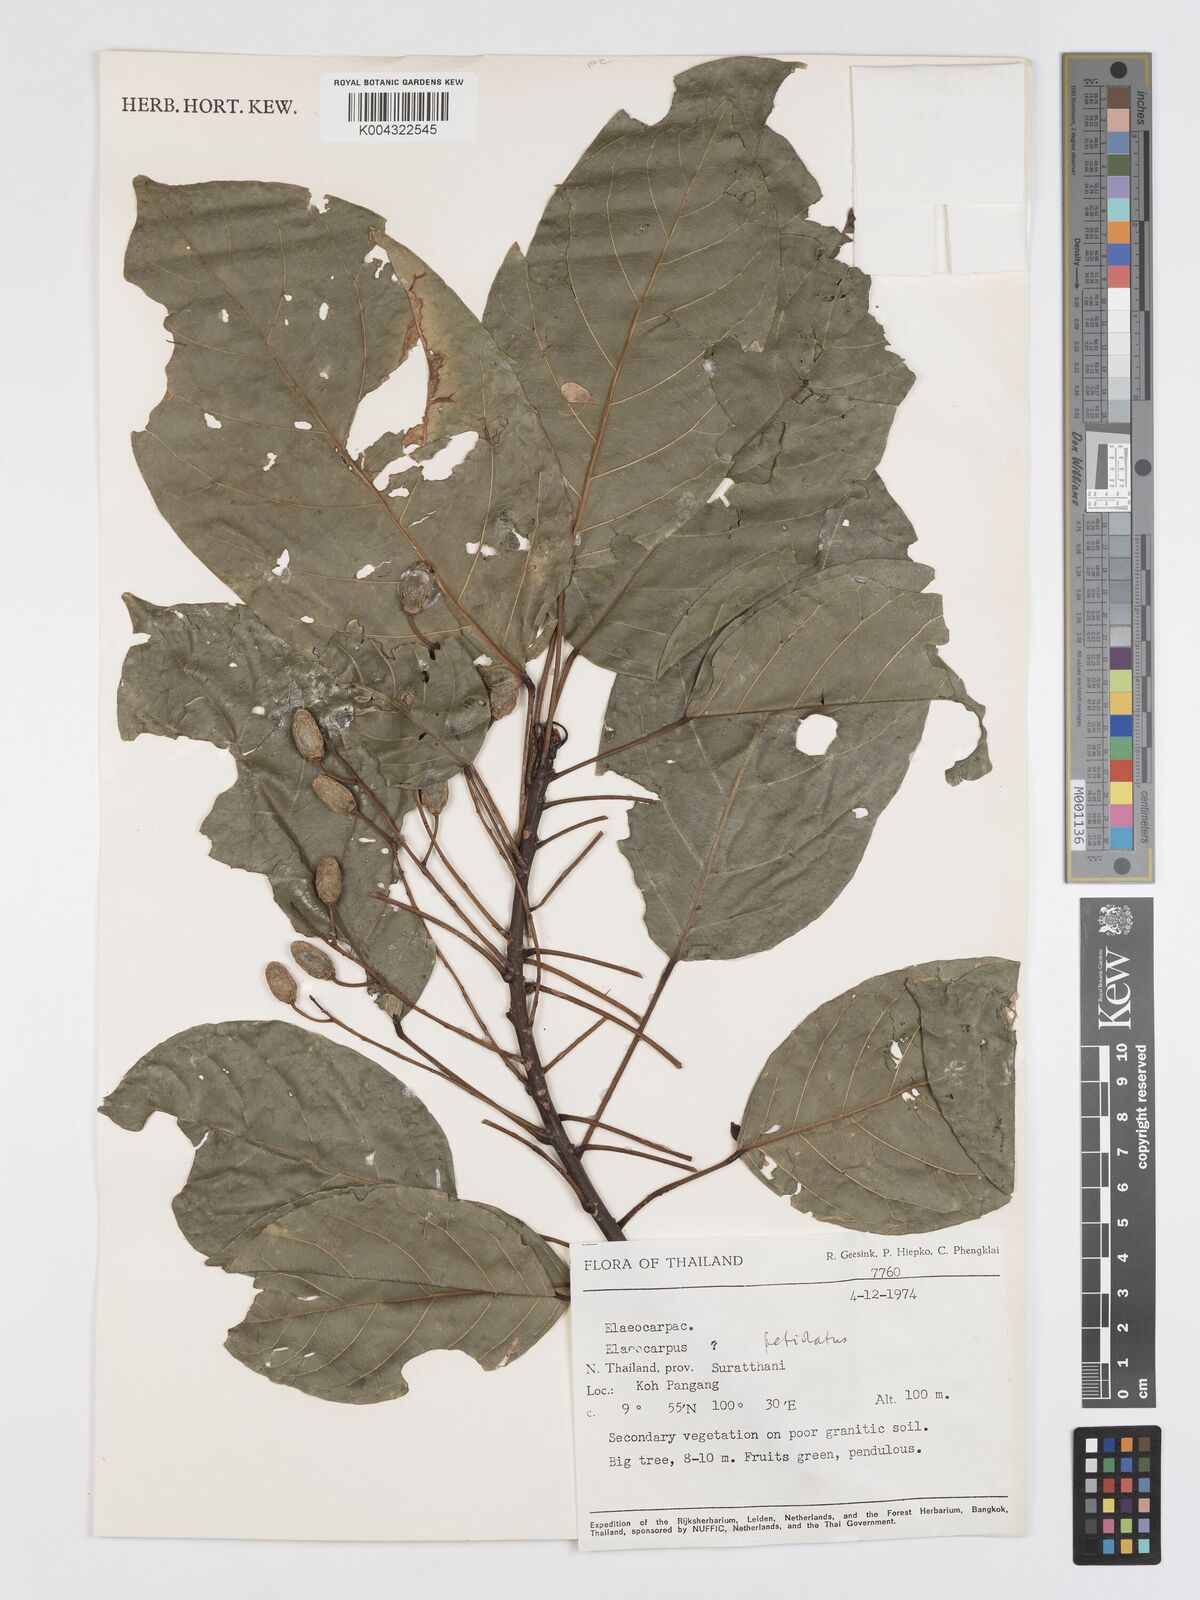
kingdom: Plantae
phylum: Tracheophyta
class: Magnoliopsida
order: Oxalidales
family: Elaeocarpaceae
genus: Elaeocarpus
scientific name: Elaeocarpus petiolatus
